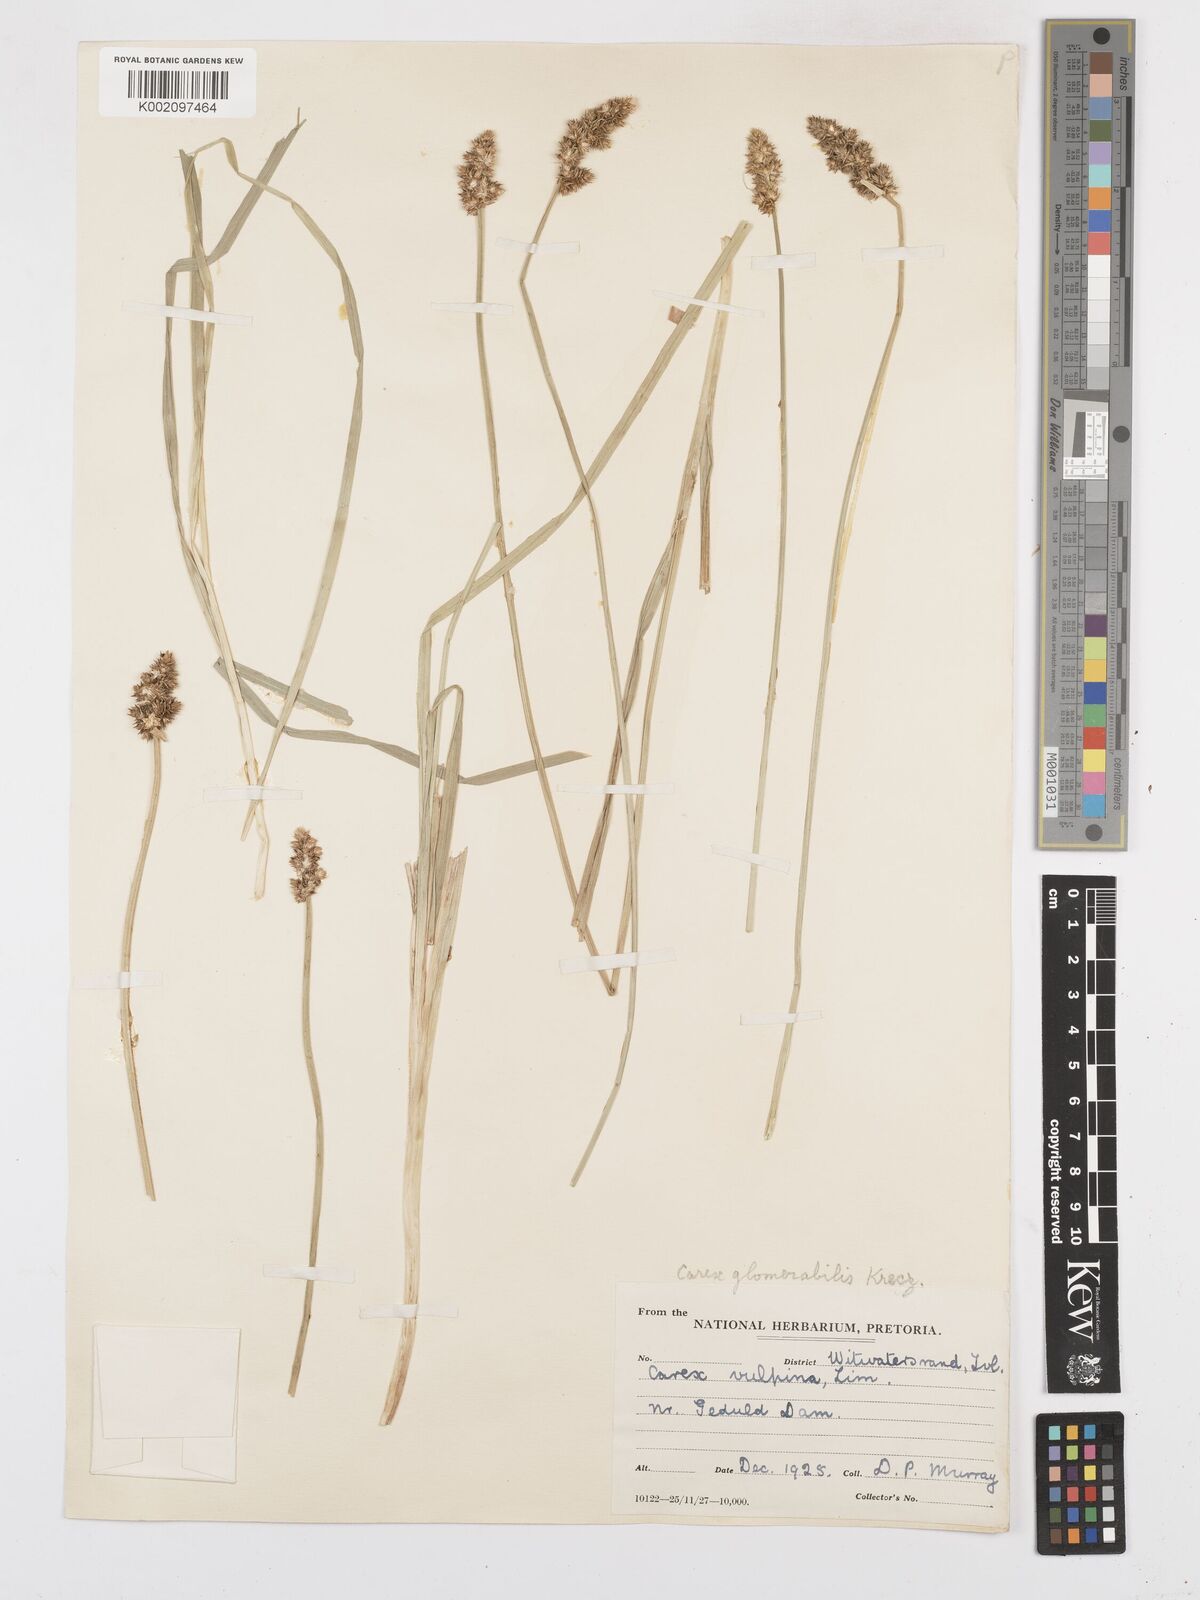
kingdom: Plantae
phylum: Tracheophyta
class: Liliopsida
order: Poales
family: Cyperaceae
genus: Carex
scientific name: Carex glomerata
